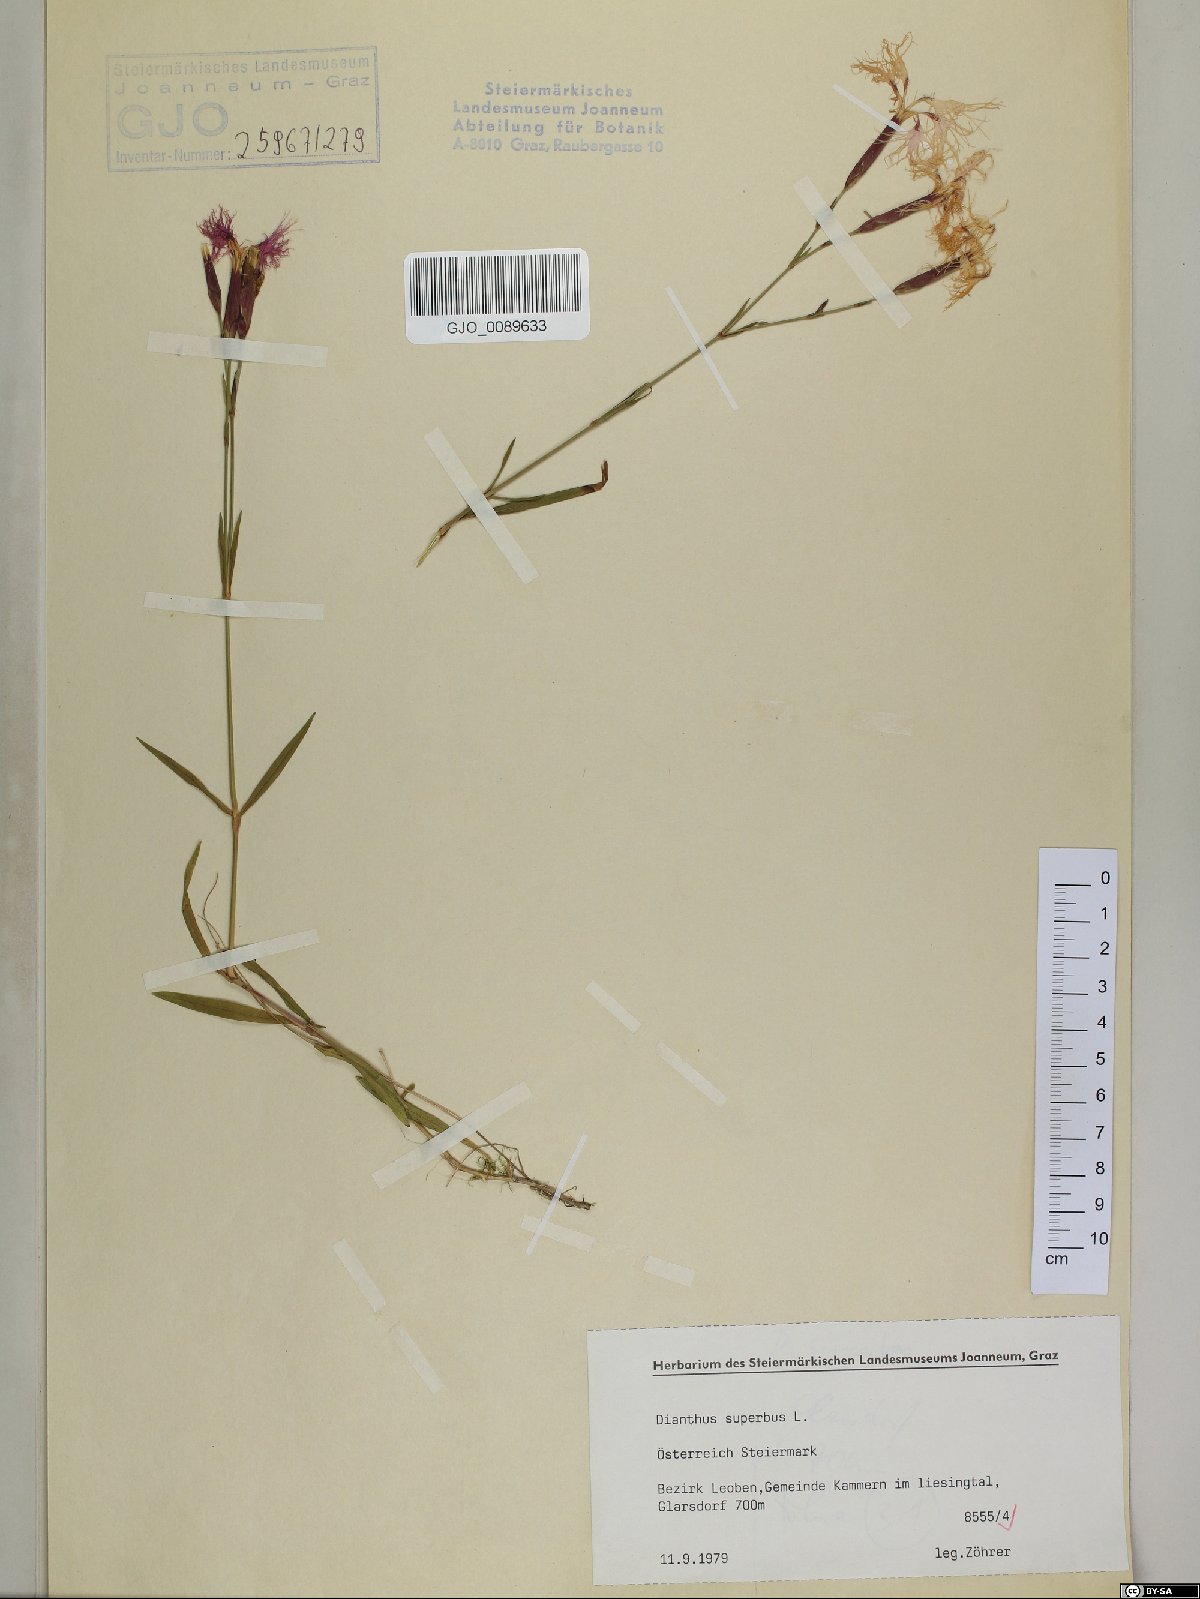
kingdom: Plantae
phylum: Tracheophyta
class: Magnoliopsida
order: Caryophyllales
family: Caryophyllaceae
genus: Dianthus
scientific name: Dianthus superbus
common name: Fringed pink
